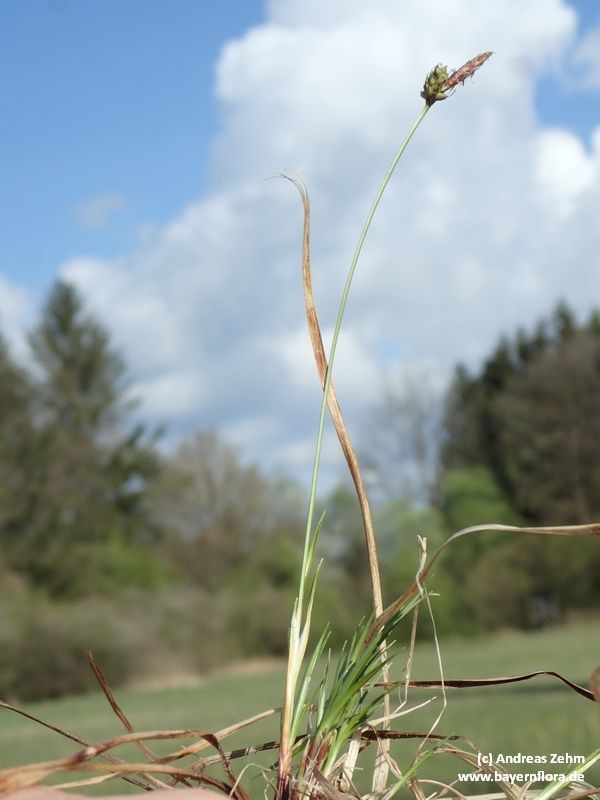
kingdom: Plantae
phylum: Tracheophyta
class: Liliopsida
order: Poales
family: Cyperaceae
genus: Carex
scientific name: Carex montana
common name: Soft-leaved sedge
